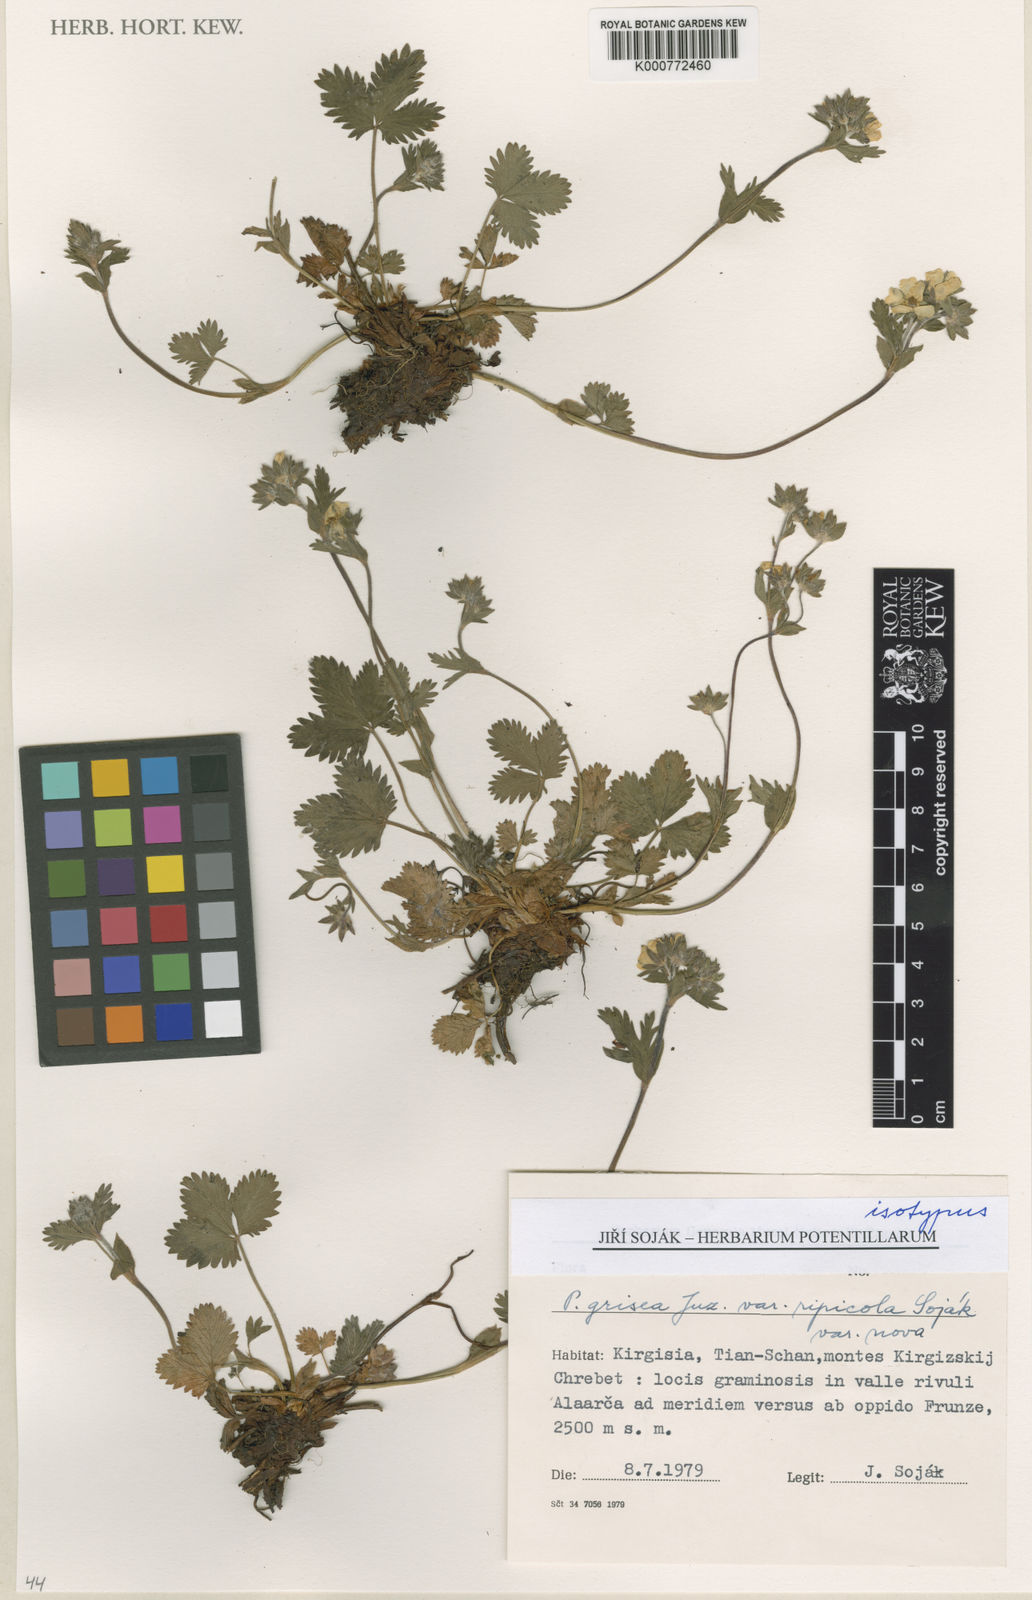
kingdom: Plantae
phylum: Tracheophyta
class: Magnoliopsida
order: Rosales
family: Rosaceae
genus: Potentilla
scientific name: Potentilla grisea
